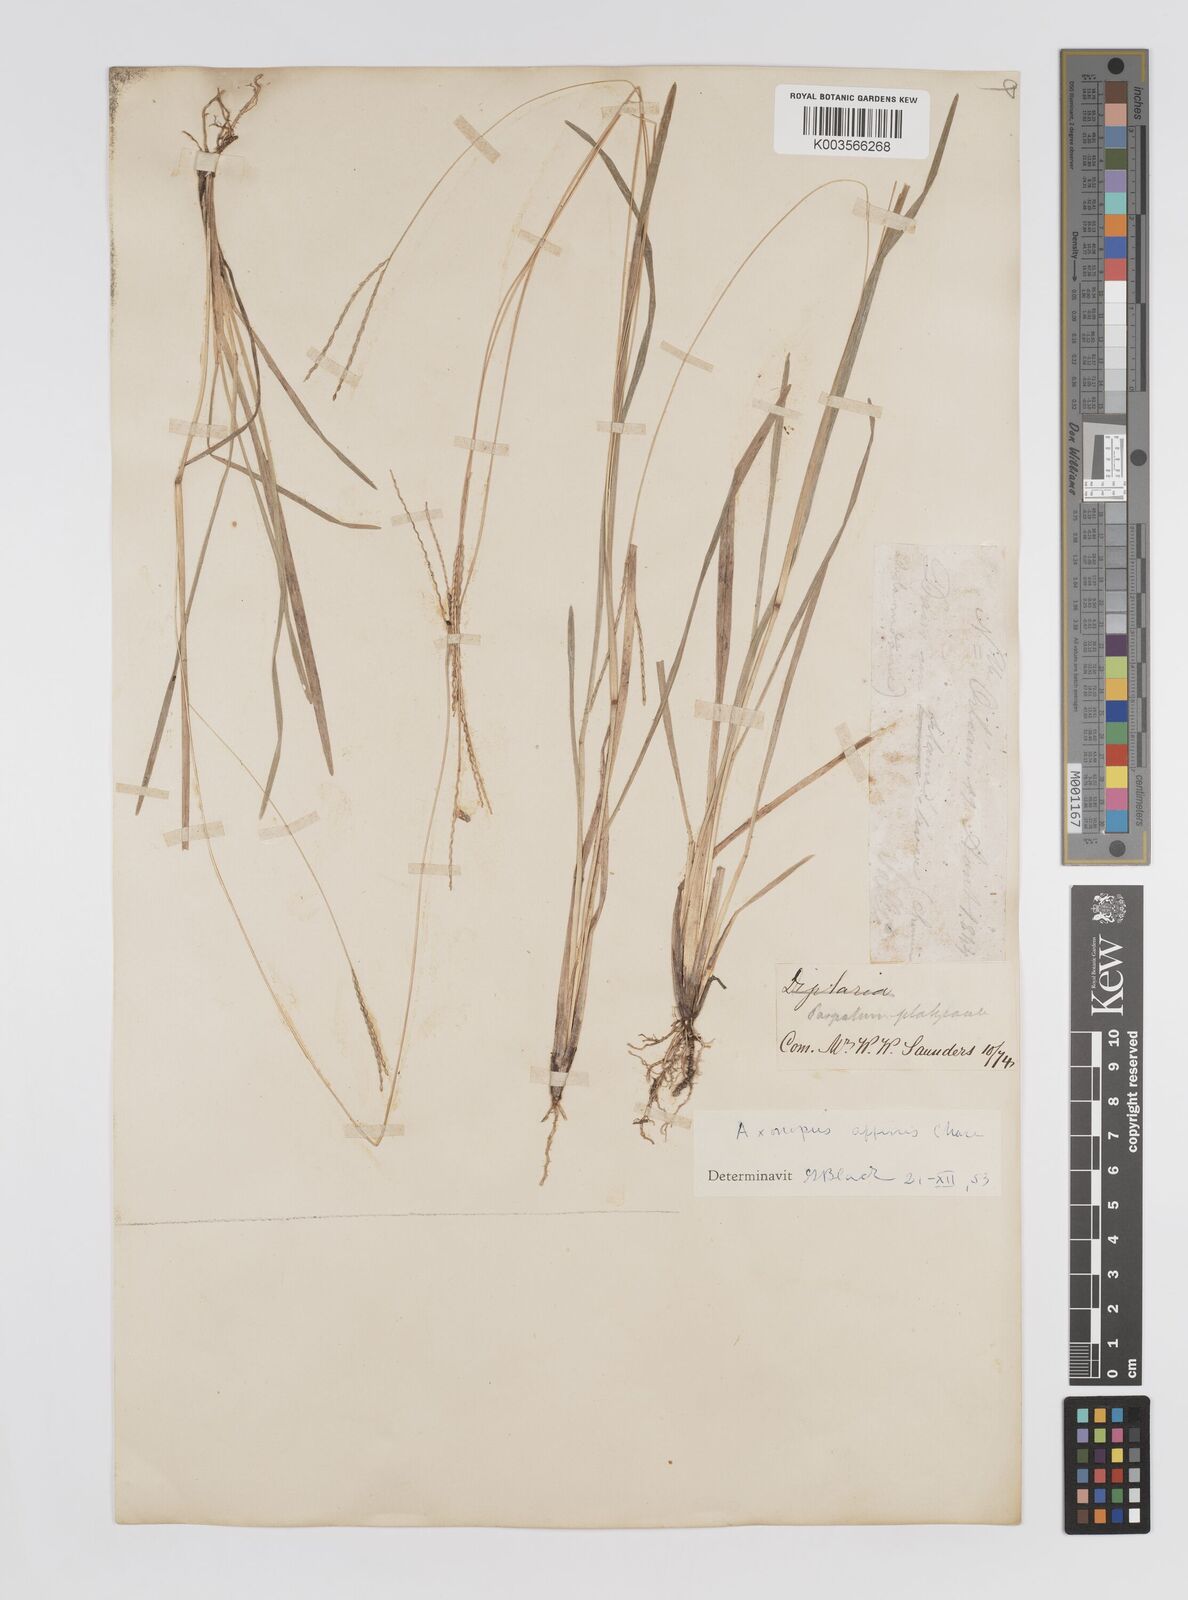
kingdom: Plantae
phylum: Tracheophyta
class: Liliopsida
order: Poales
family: Poaceae
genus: Axonopus
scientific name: Axonopus fissifolius
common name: Common carpetgrass
